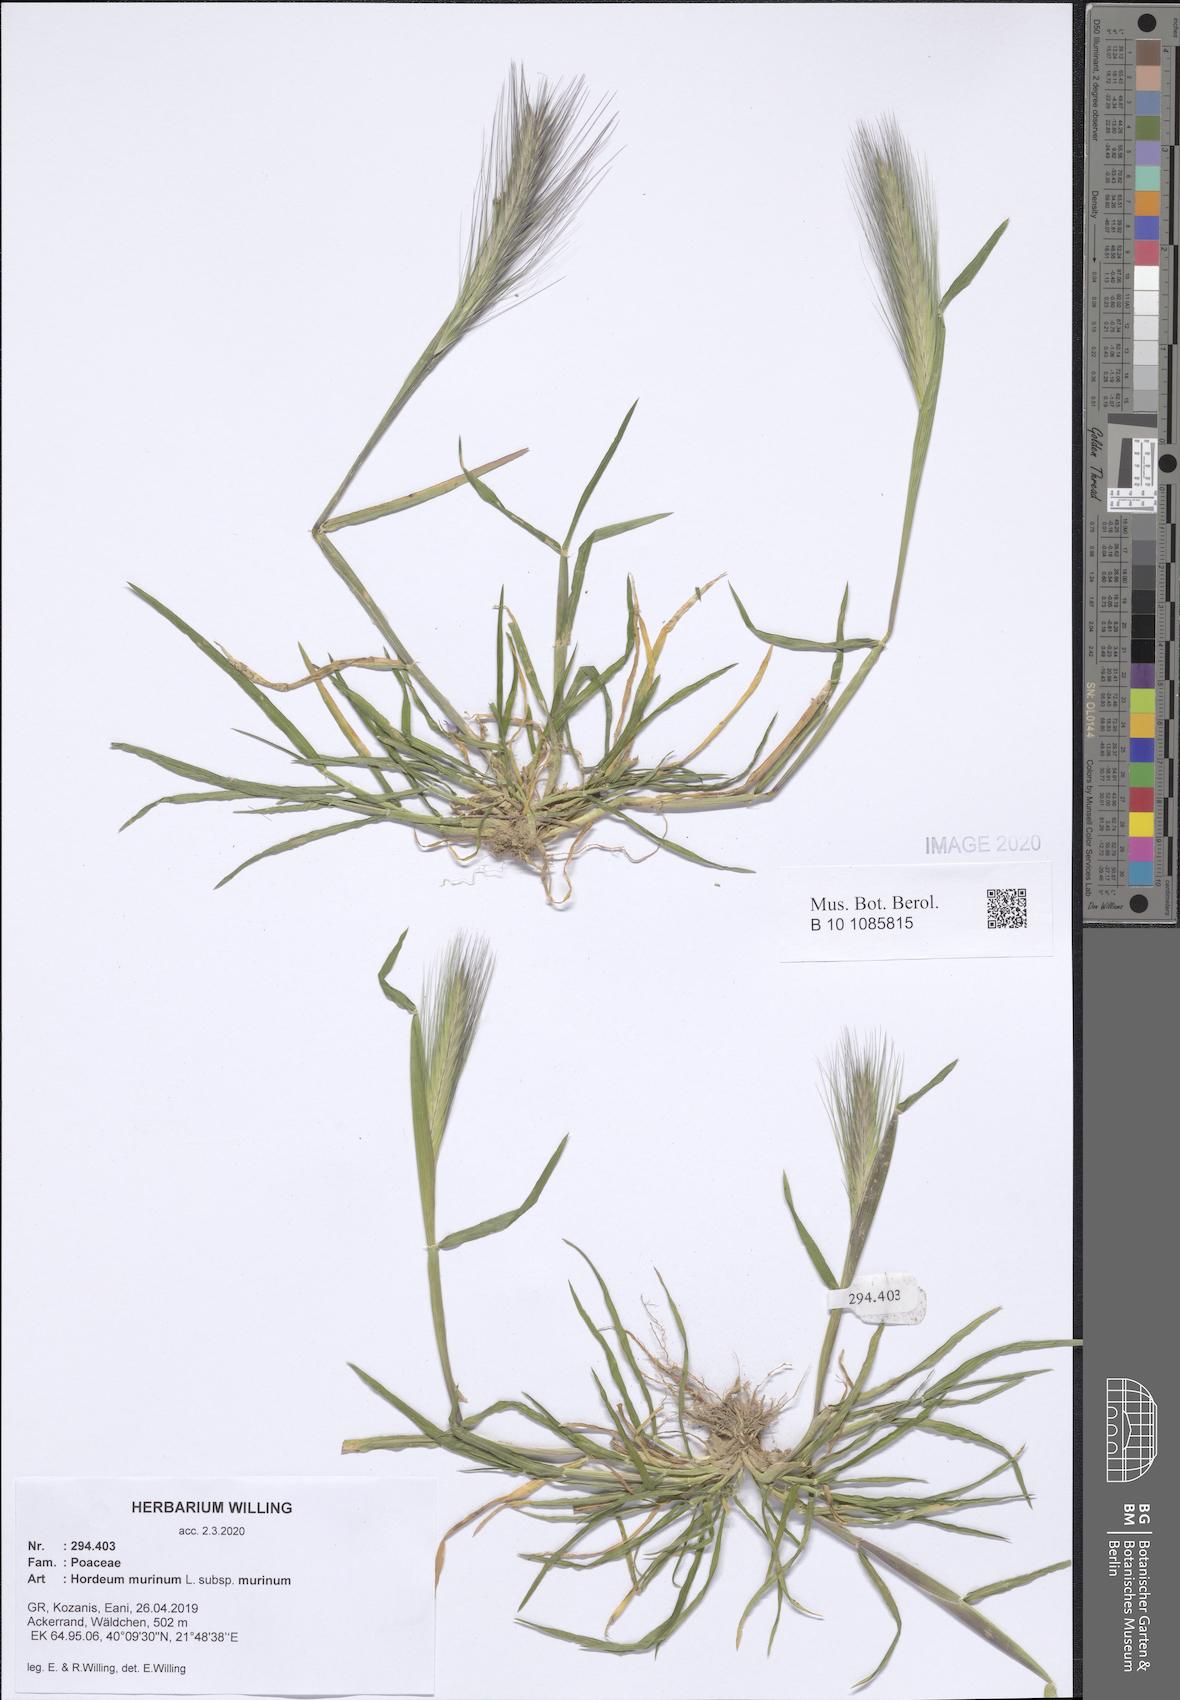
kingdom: Plantae
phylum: Tracheophyta
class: Liliopsida
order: Poales
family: Poaceae
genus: Hordeum
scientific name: Hordeum murinum
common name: Wall barley
